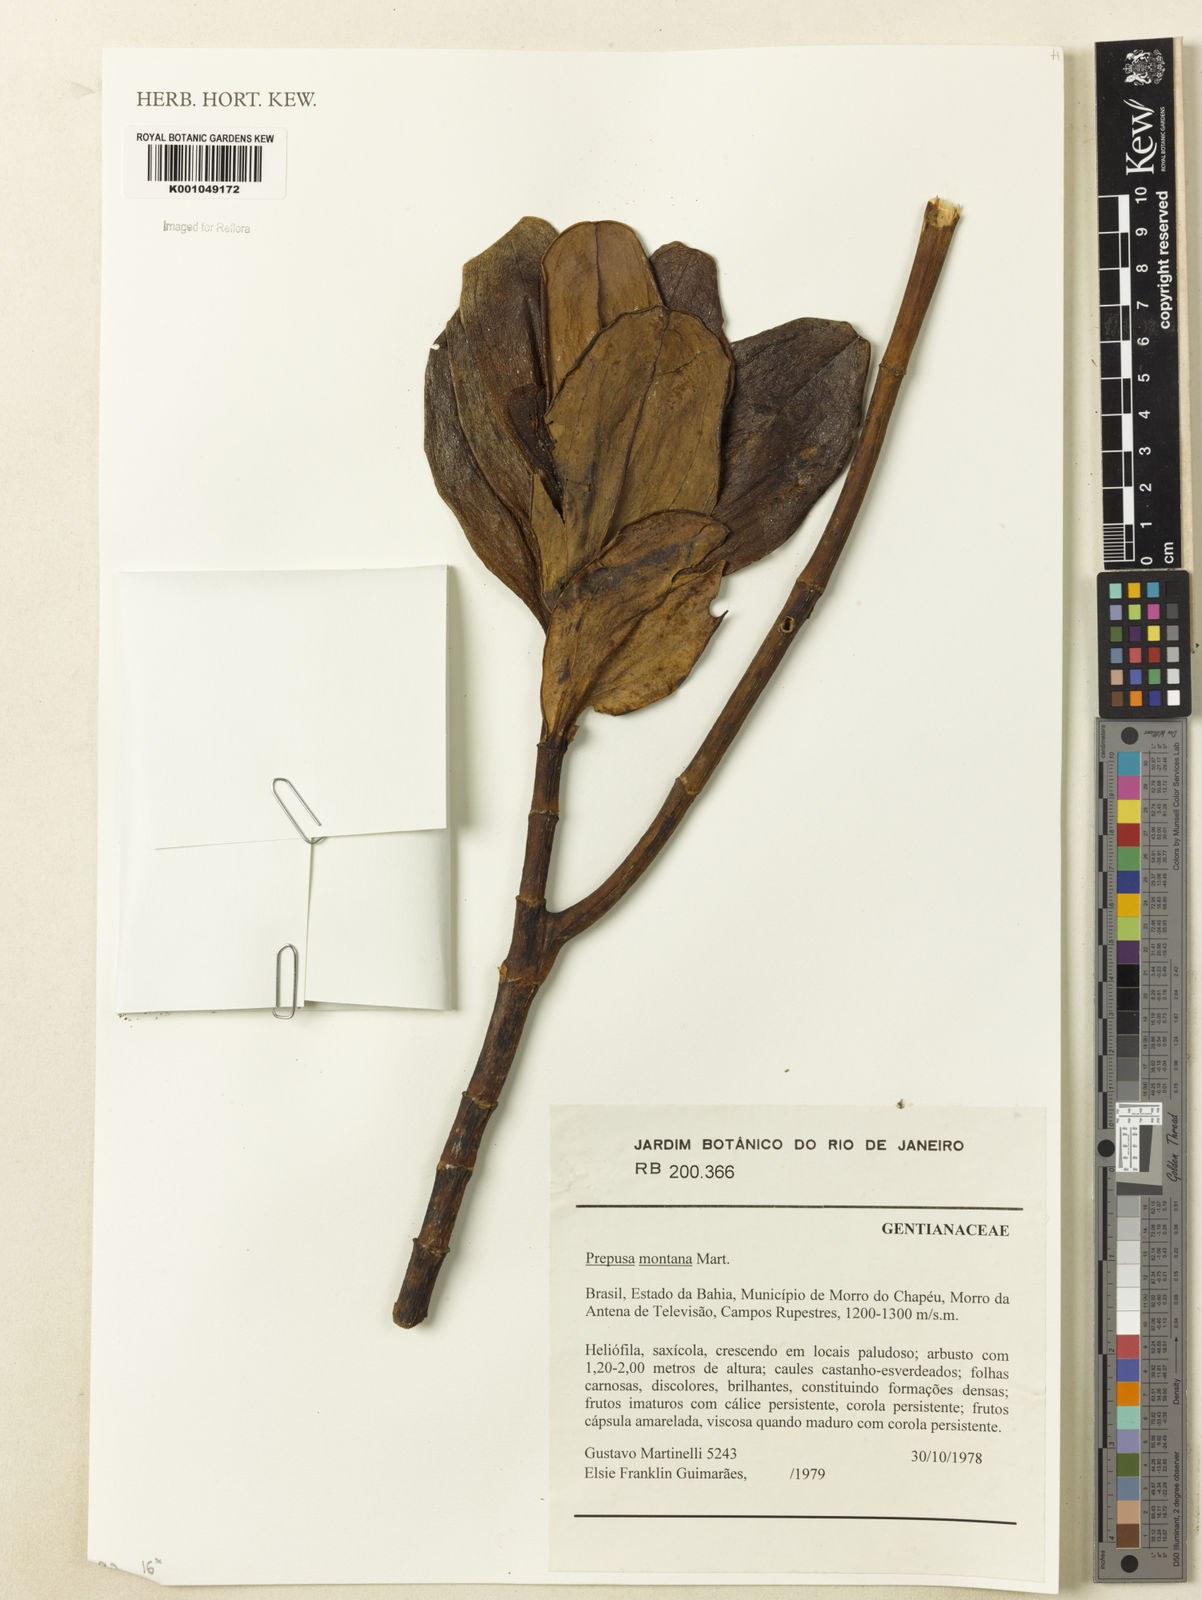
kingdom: Plantae
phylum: Tracheophyta
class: Magnoliopsida
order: Gentianales
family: Gentianaceae
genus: Prepusa
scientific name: Prepusa montana
